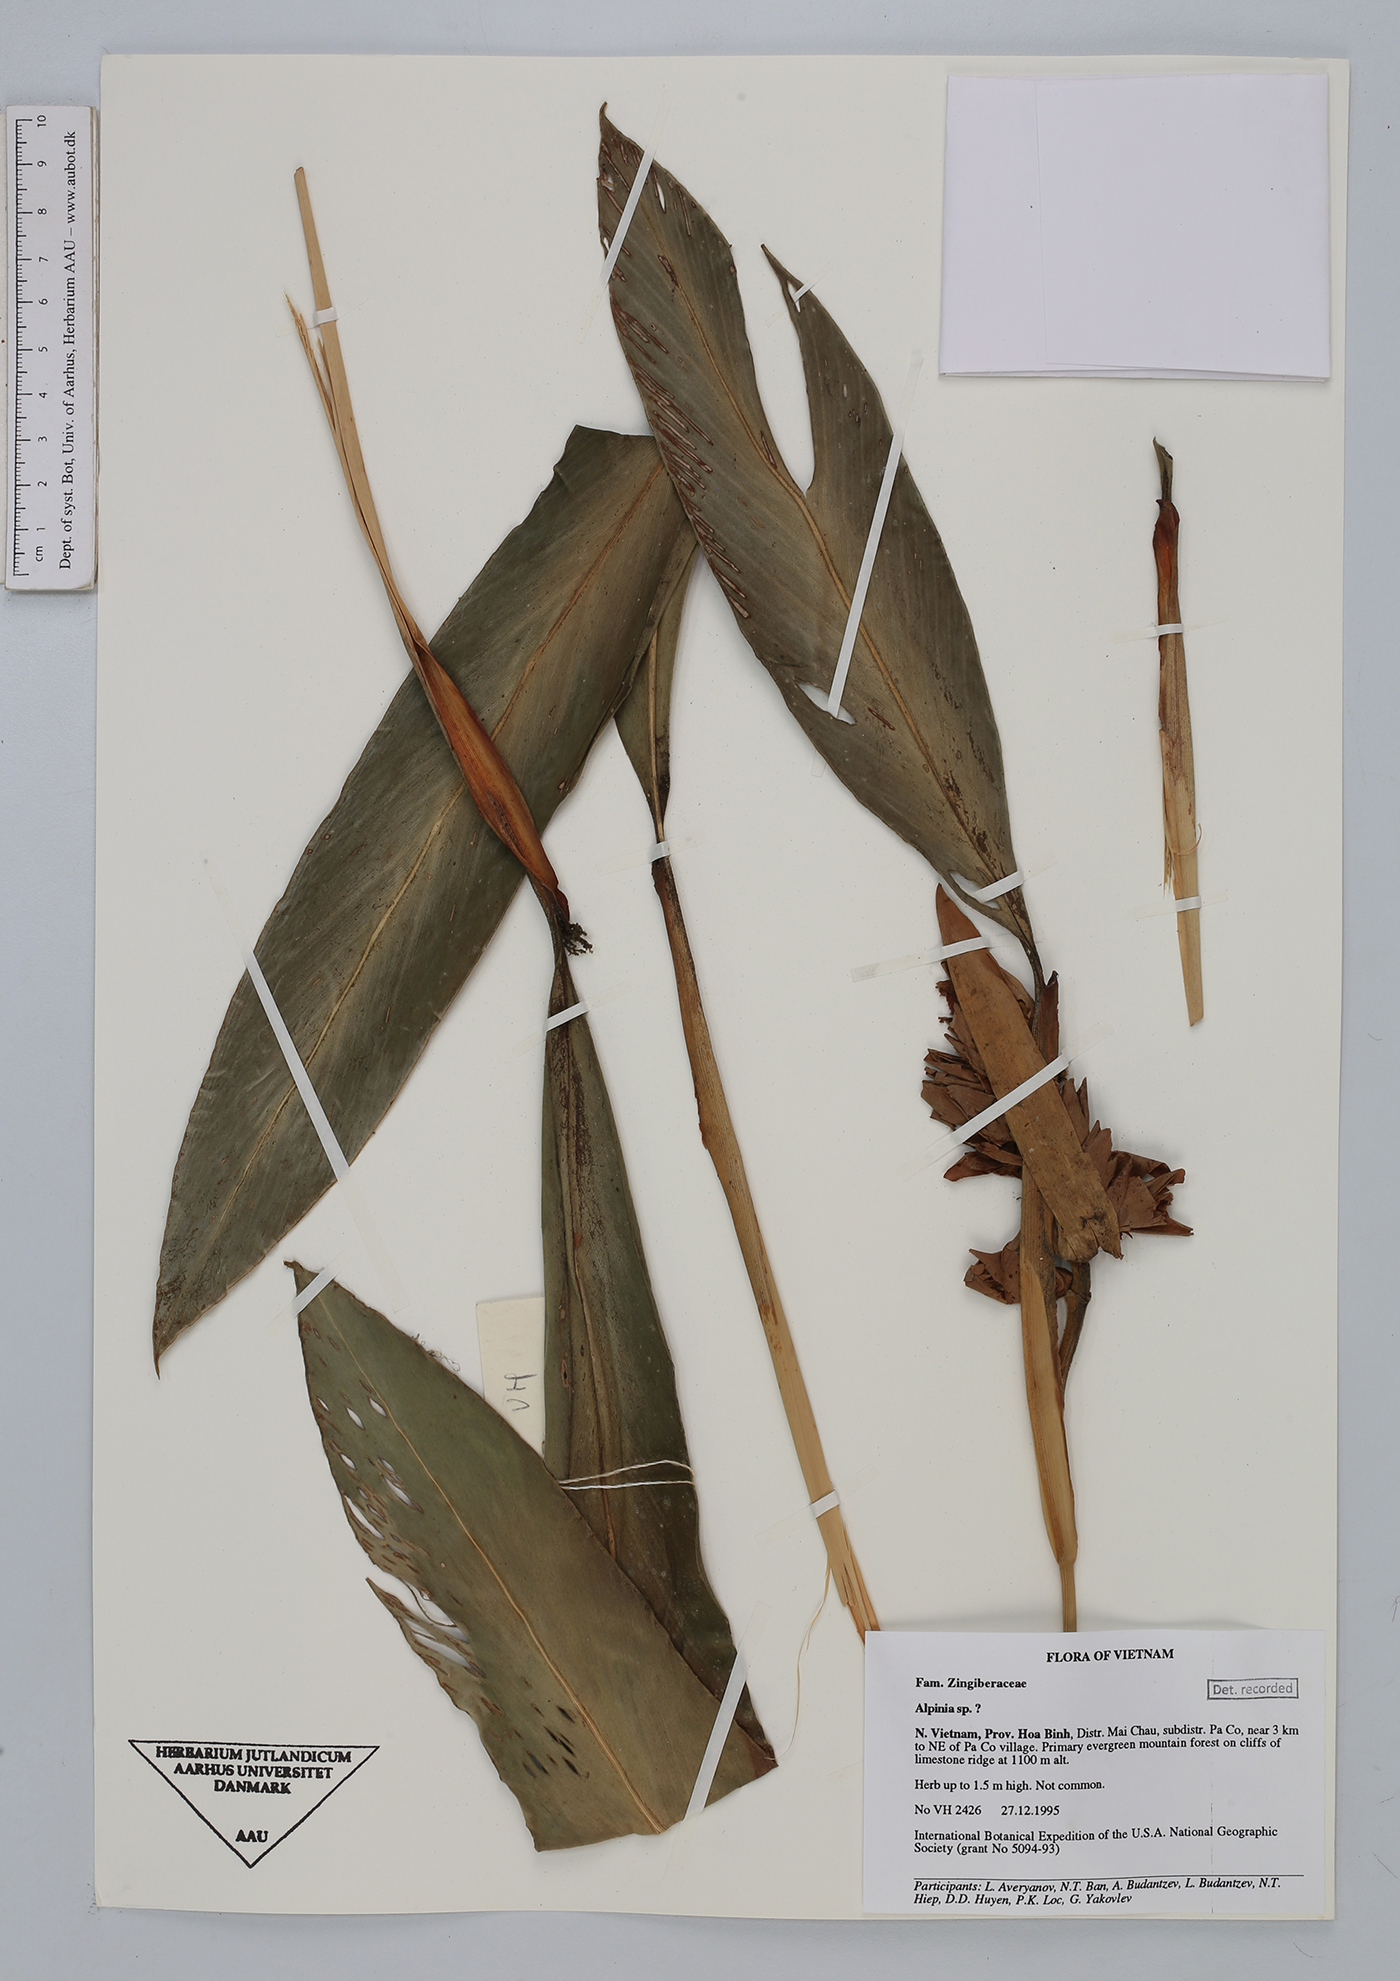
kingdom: Plantae
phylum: Tracheophyta
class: Liliopsida
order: Zingiberales
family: Zingiberaceae
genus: Alpinia
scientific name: Alpinia
